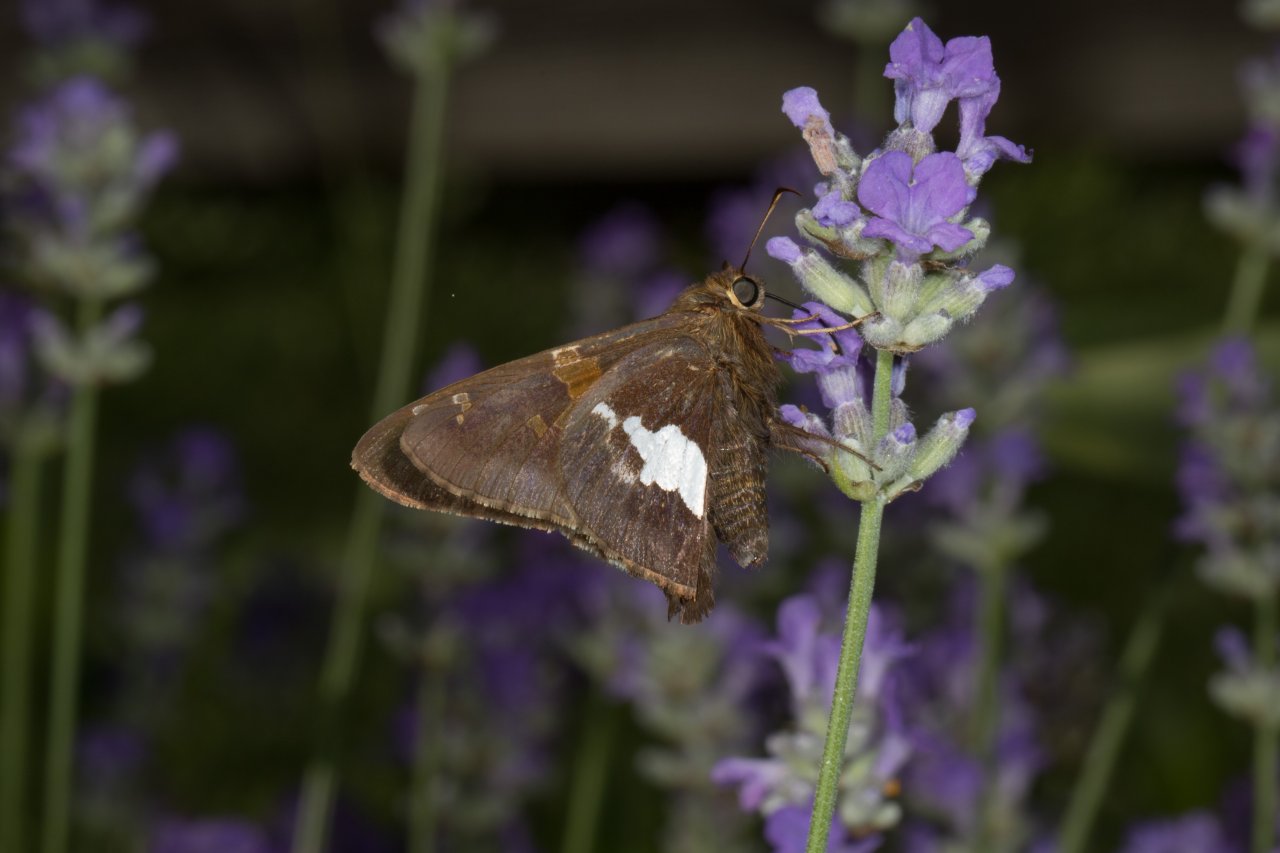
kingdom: Animalia
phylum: Arthropoda
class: Insecta
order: Lepidoptera
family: Hesperiidae
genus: Epargyreus
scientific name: Epargyreus clarus
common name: Silver-spotted Skipper
